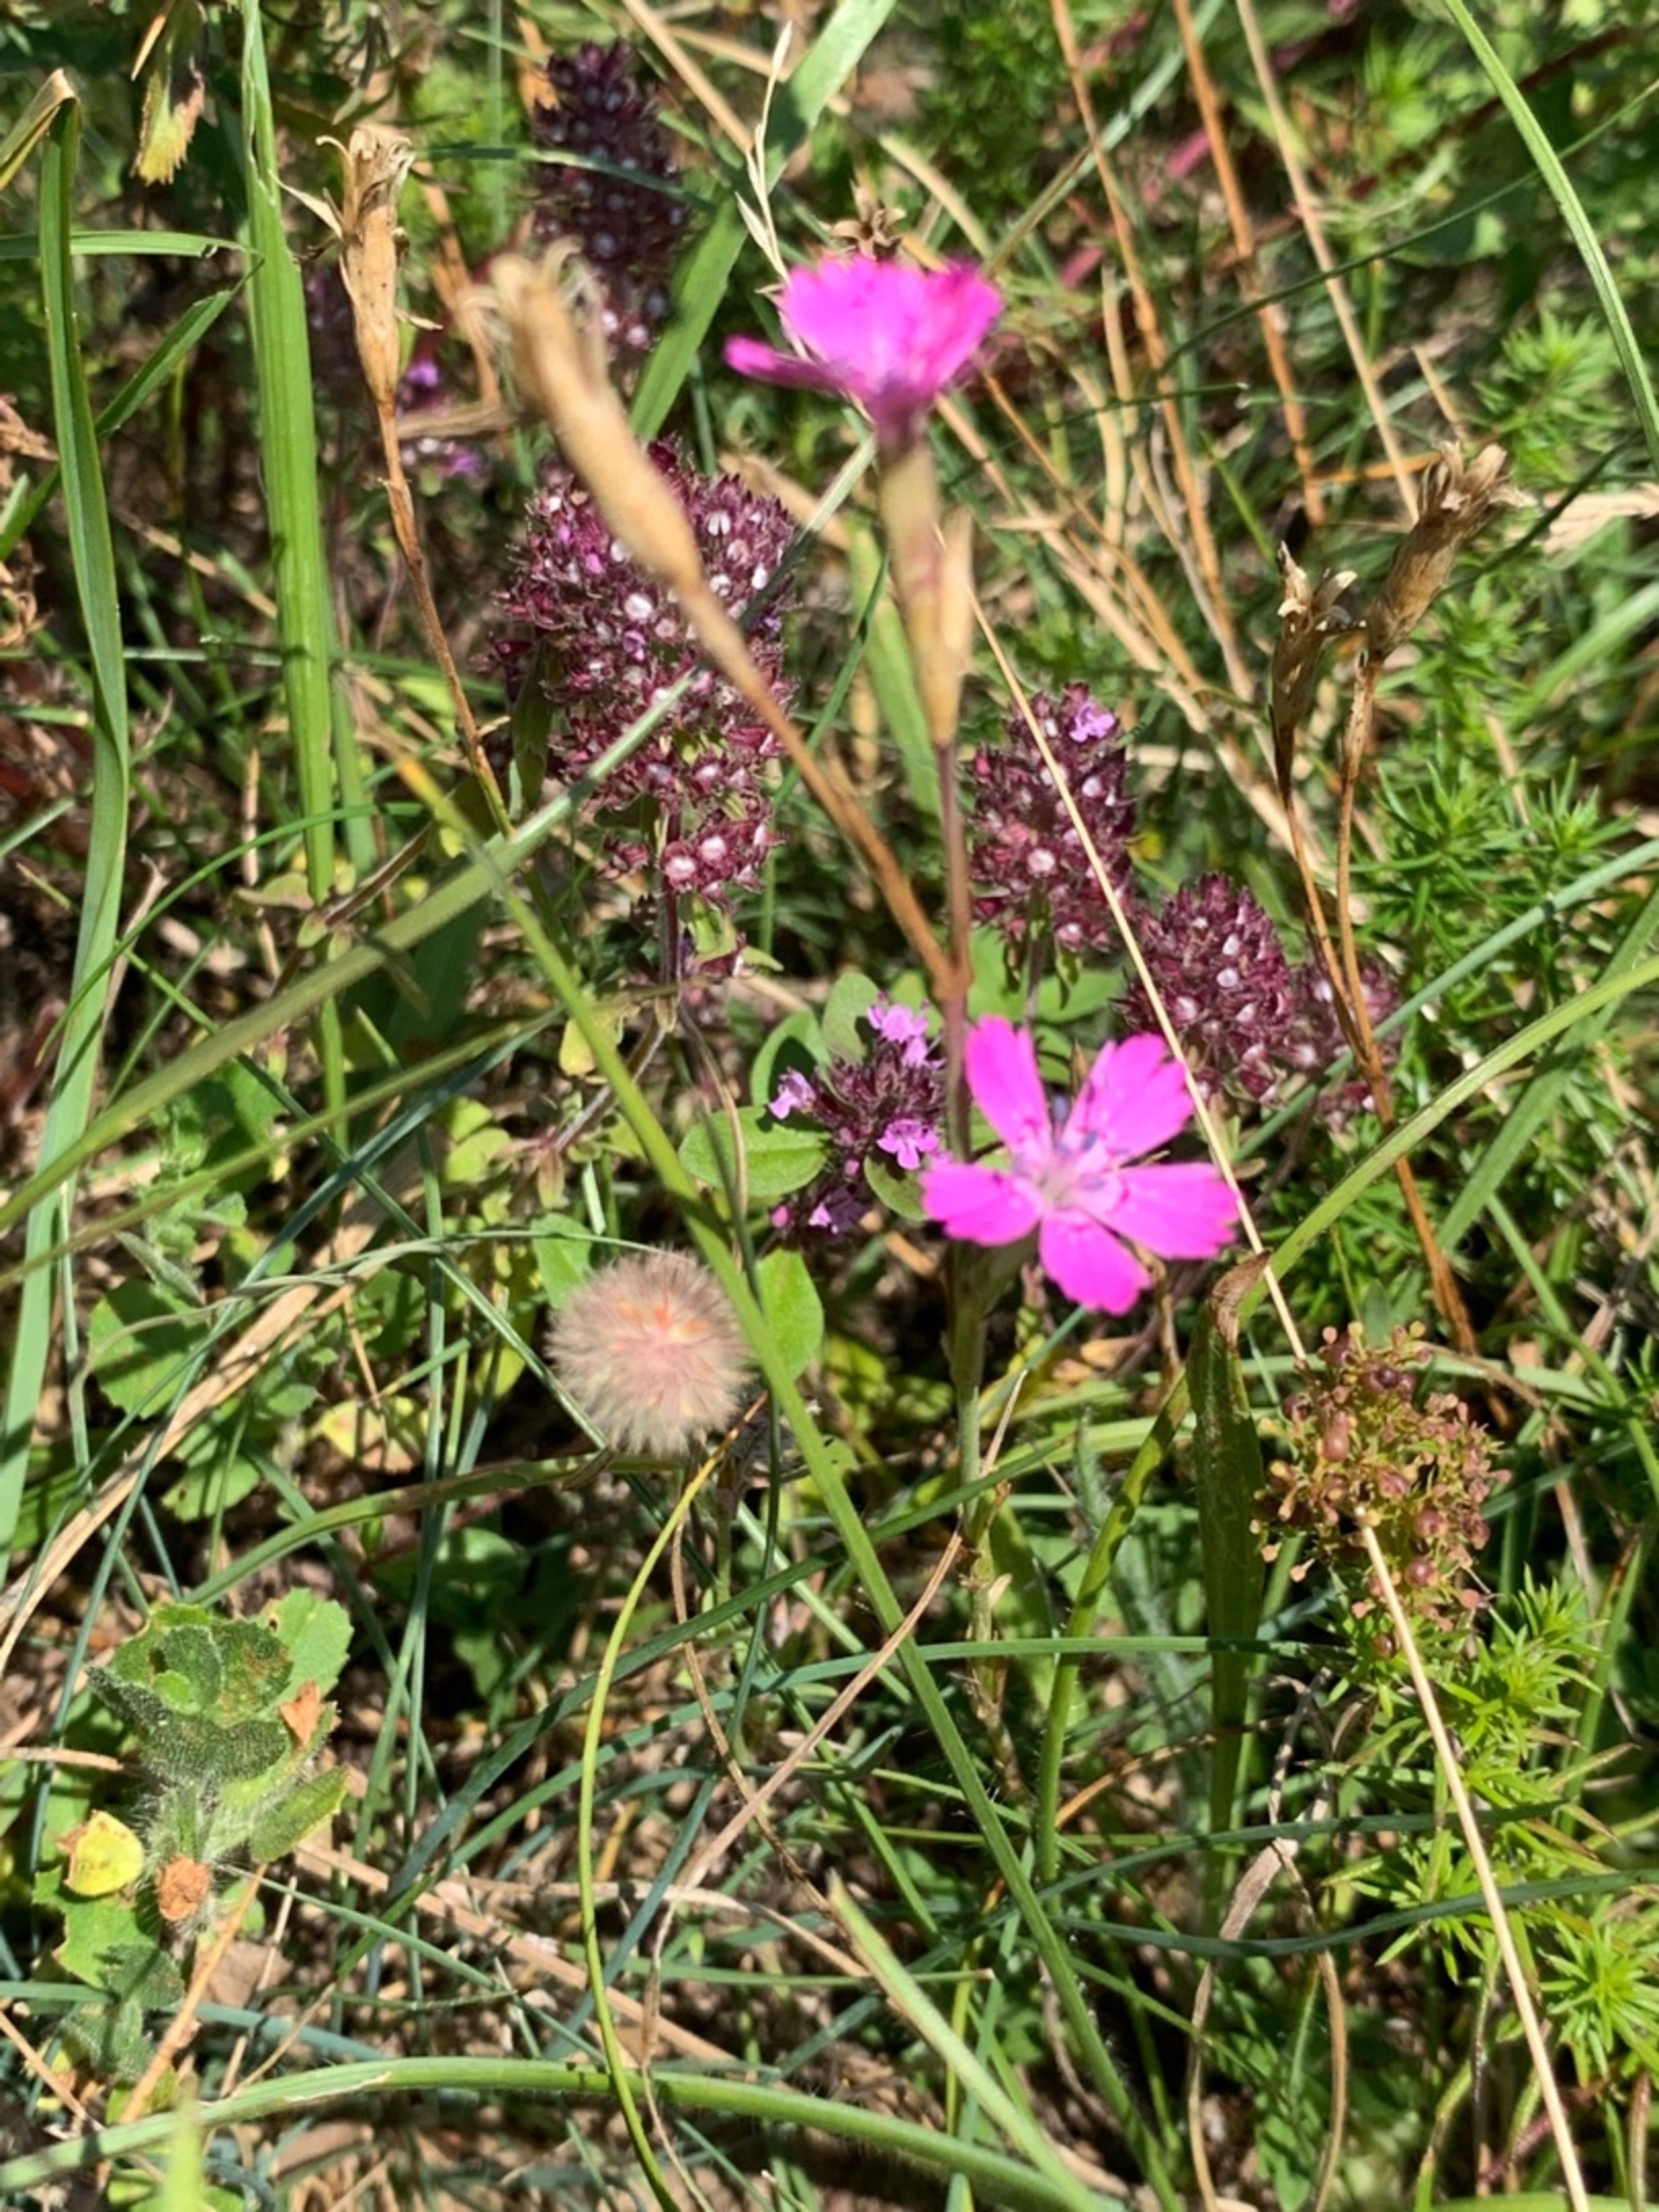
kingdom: Plantae
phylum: Tracheophyta
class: Magnoliopsida
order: Caryophyllales
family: Caryophyllaceae
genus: Dianthus
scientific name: Dianthus deltoides
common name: Bakke-nellike
